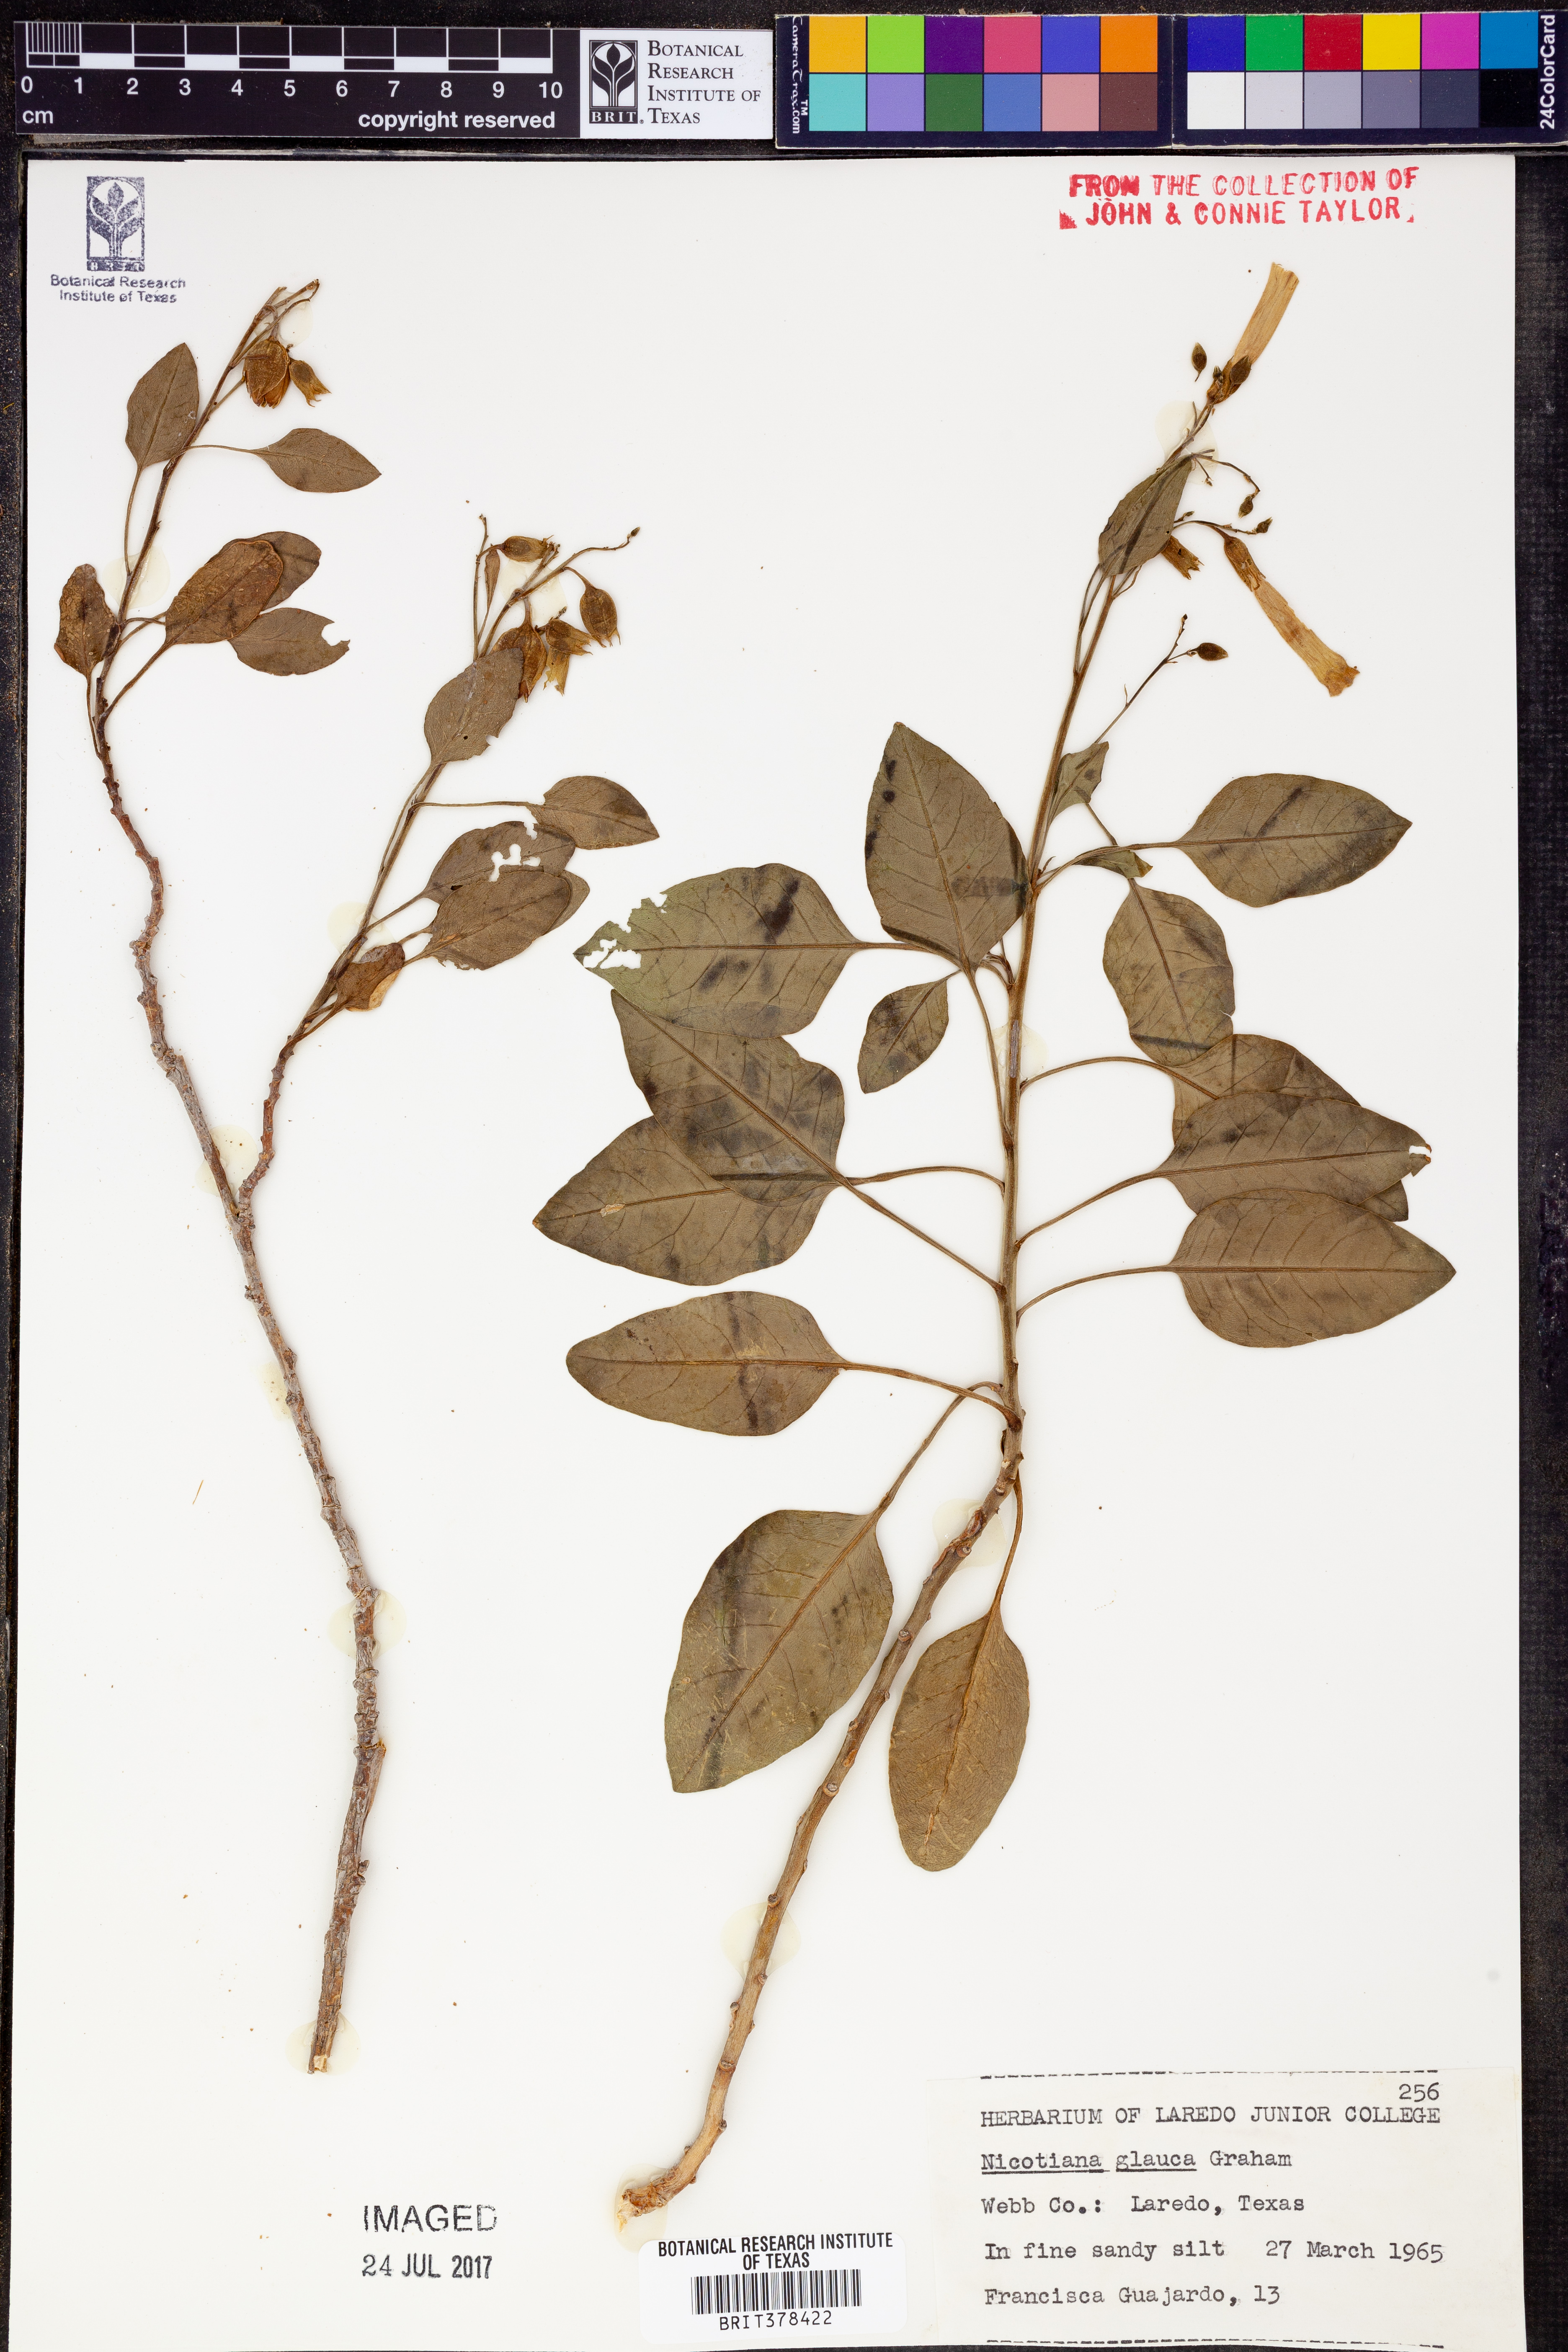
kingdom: Plantae
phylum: Tracheophyta
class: Magnoliopsida
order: Solanales
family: Solanaceae
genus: Nicotiana
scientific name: Nicotiana glauca
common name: Tree tobacco
